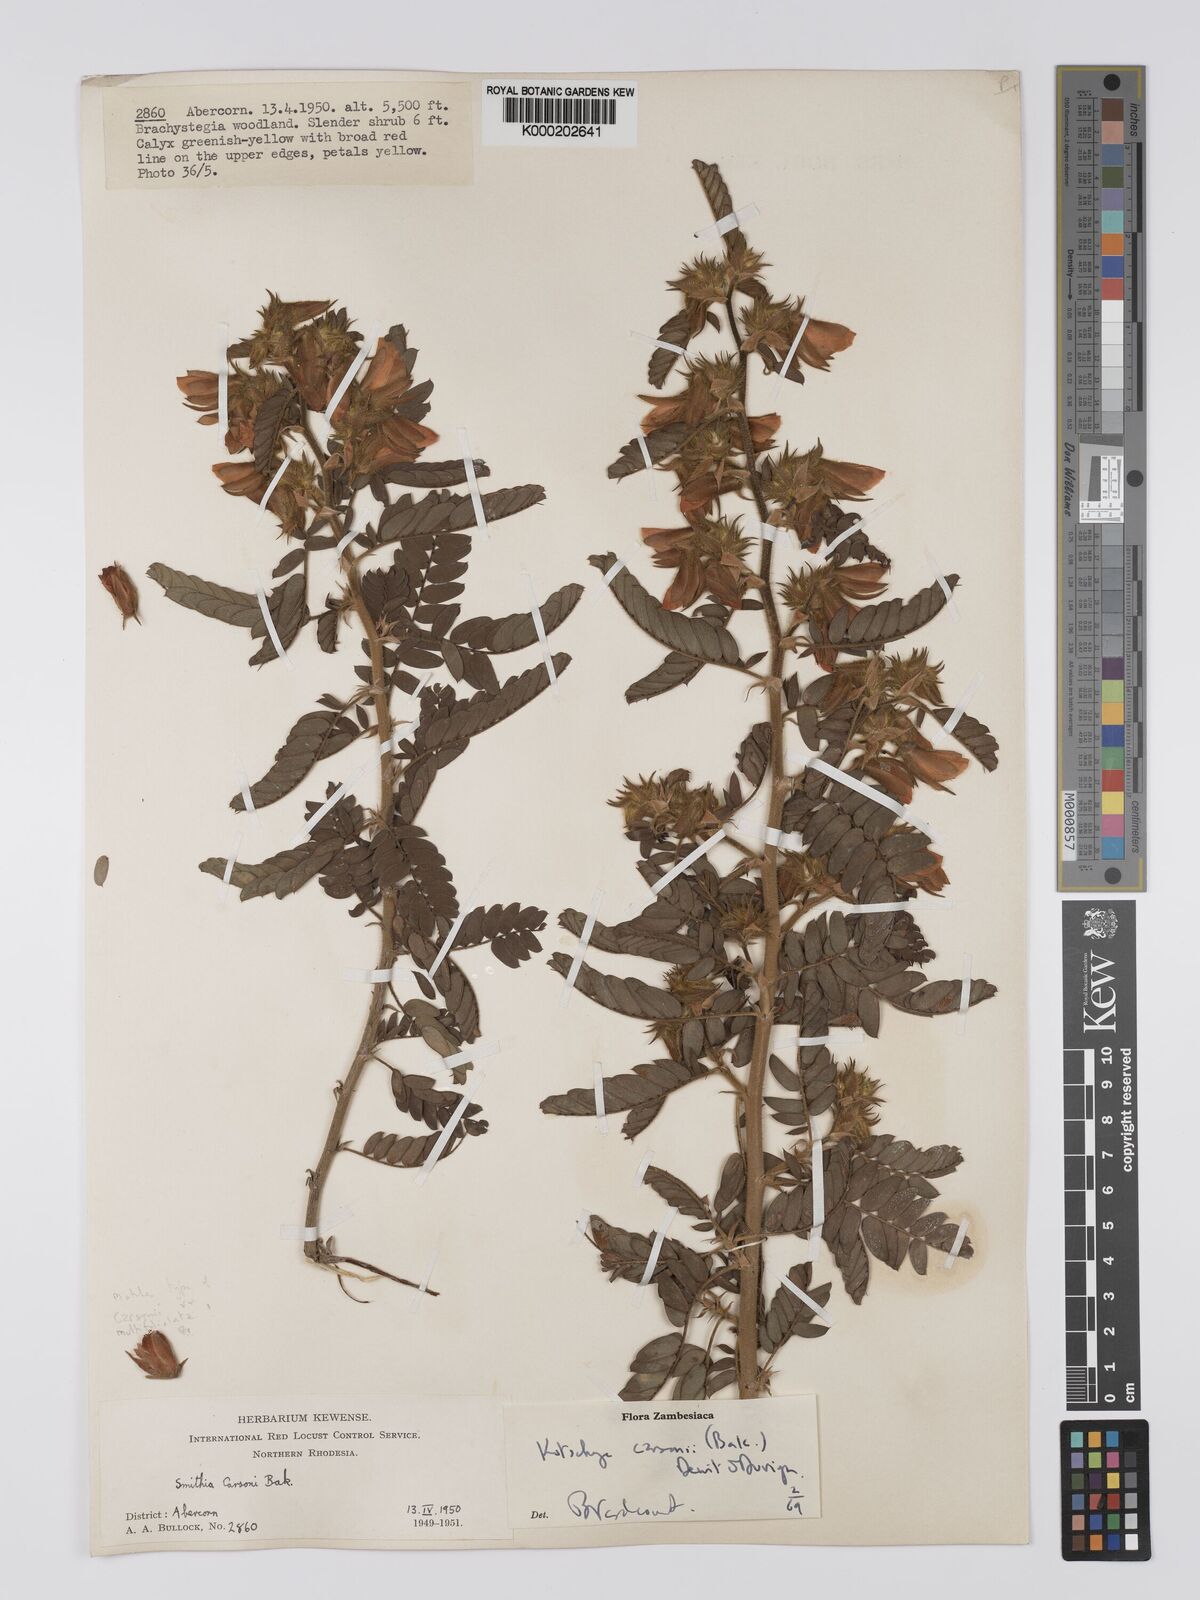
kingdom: Plantae
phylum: Tracheophyta
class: Magnoliopsida
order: Fabales
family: Fabaceae
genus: Kotschya
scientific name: Kotschya carsonii
